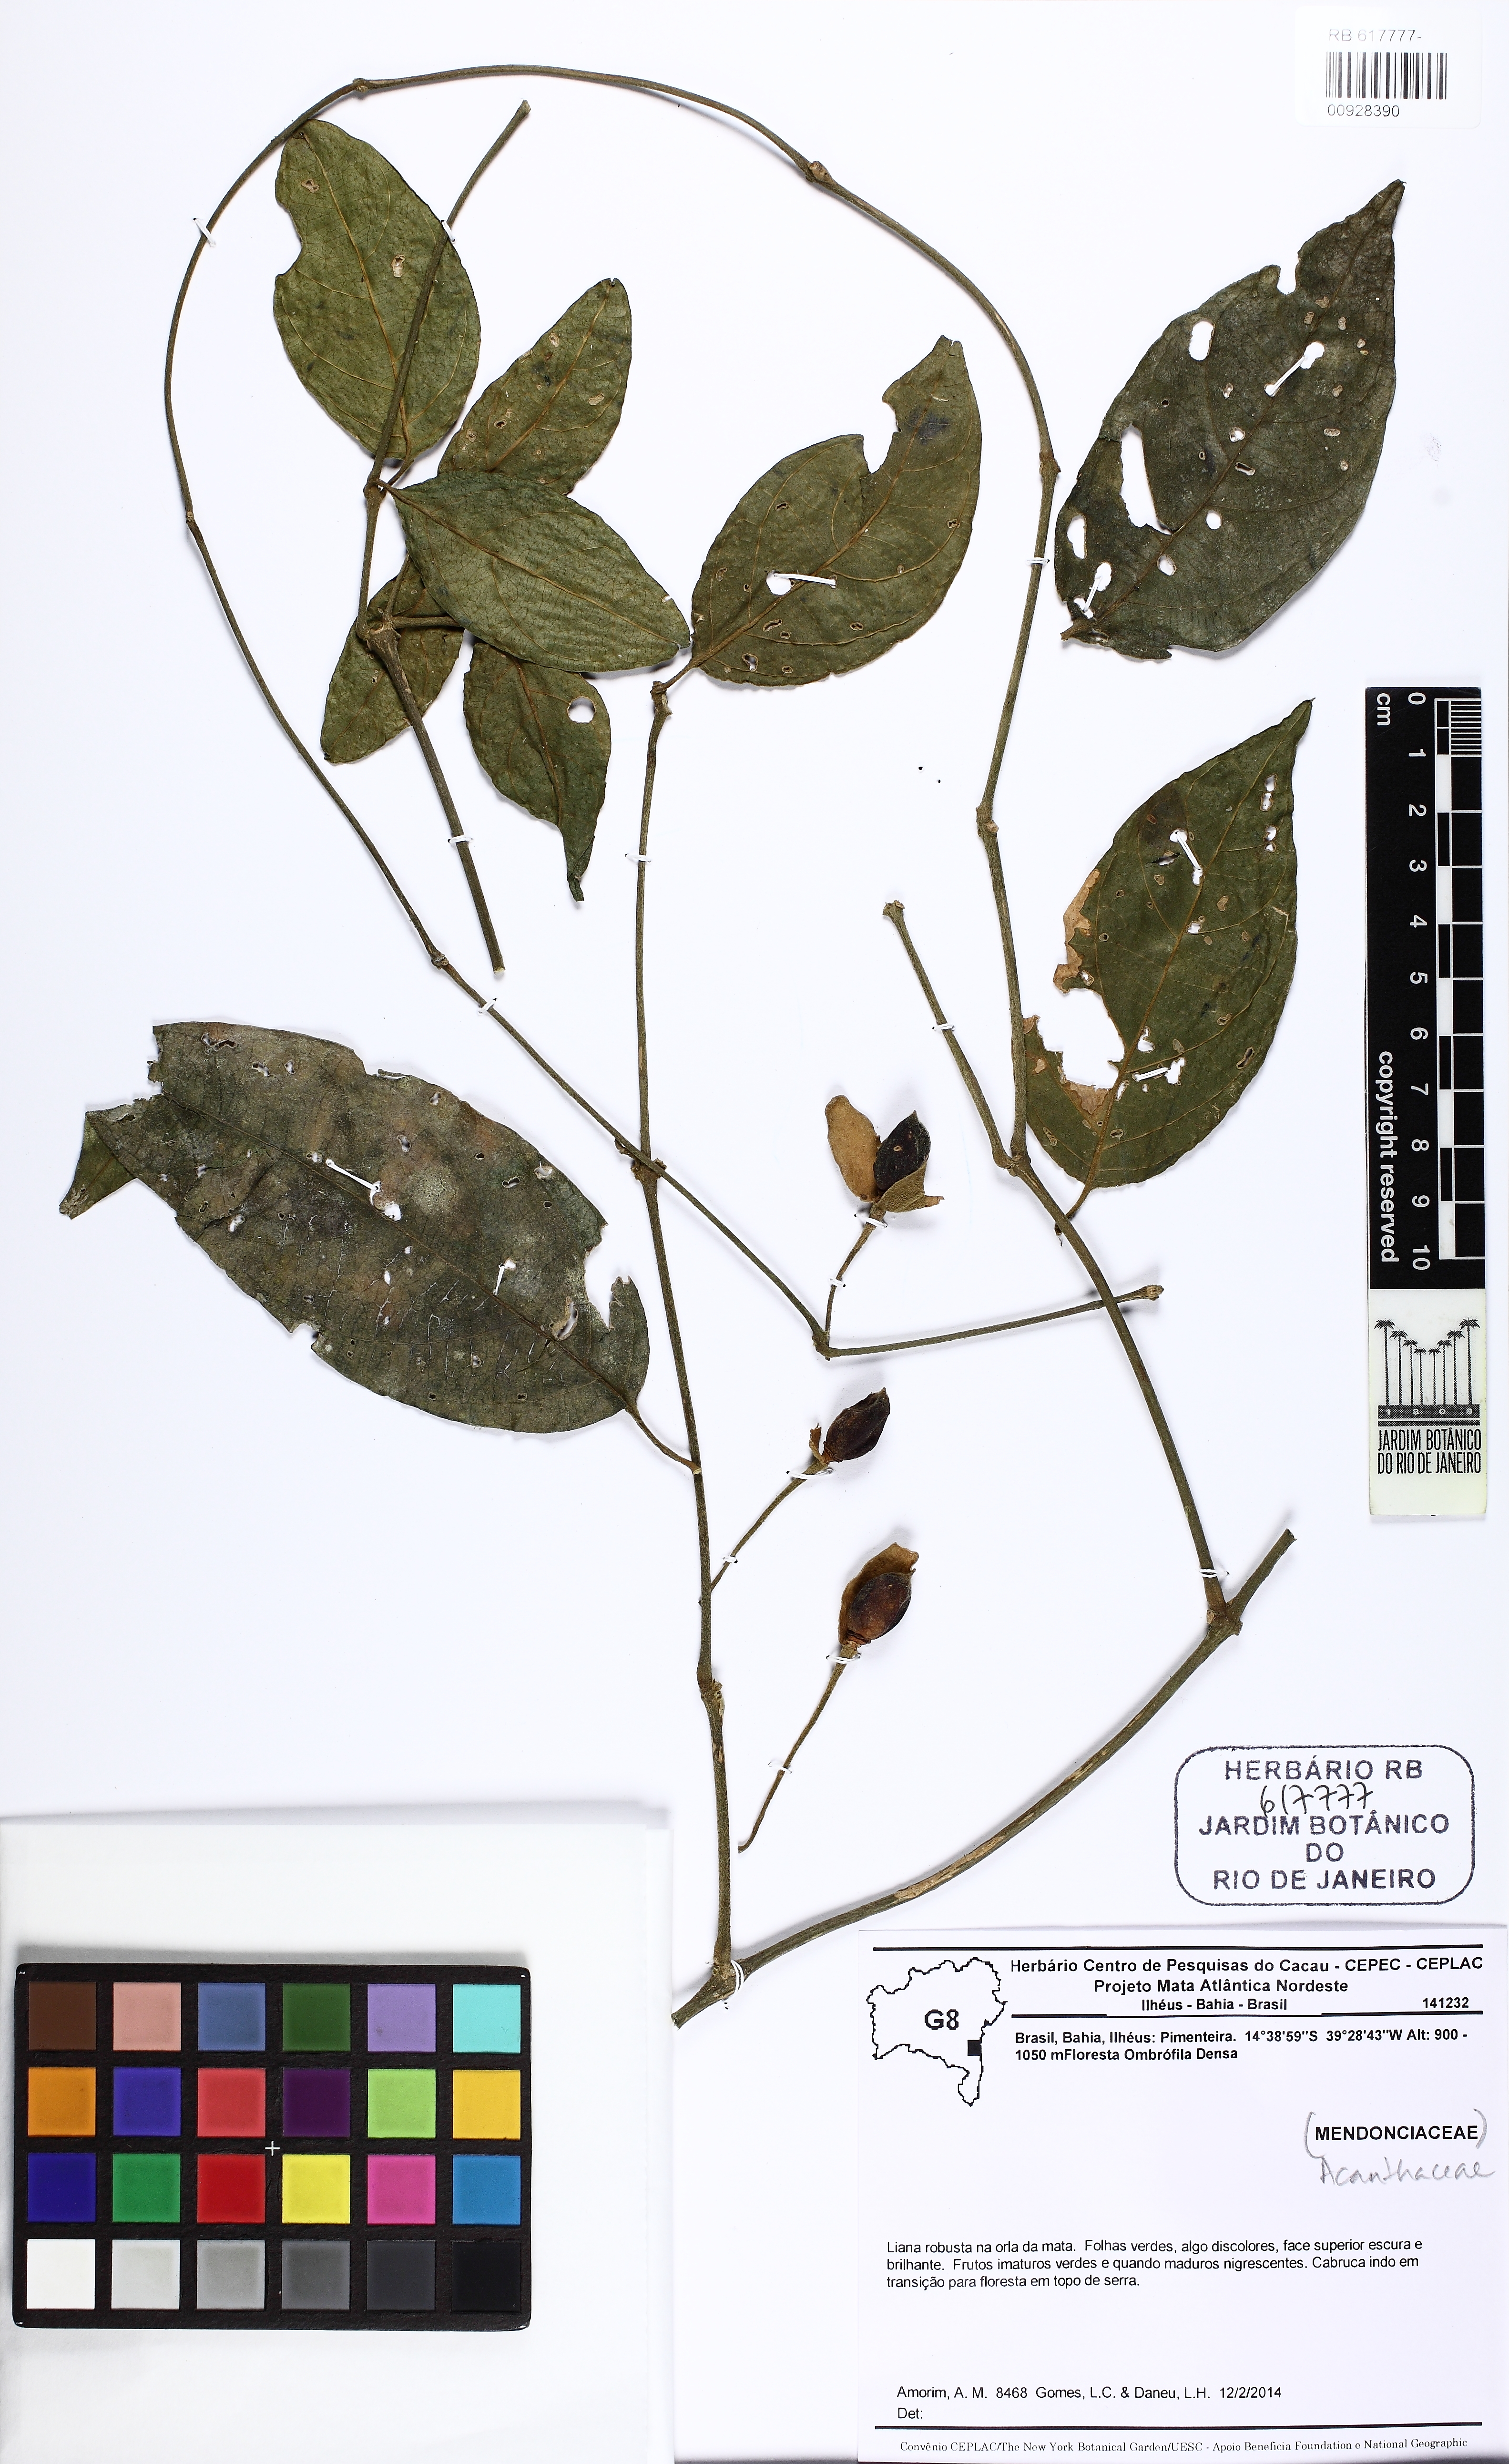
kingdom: Plantae
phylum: Tracheophyta
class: Magnoliopsida
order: Lamiales
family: Acanthaceae
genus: Mendoncia
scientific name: Mendoncia
